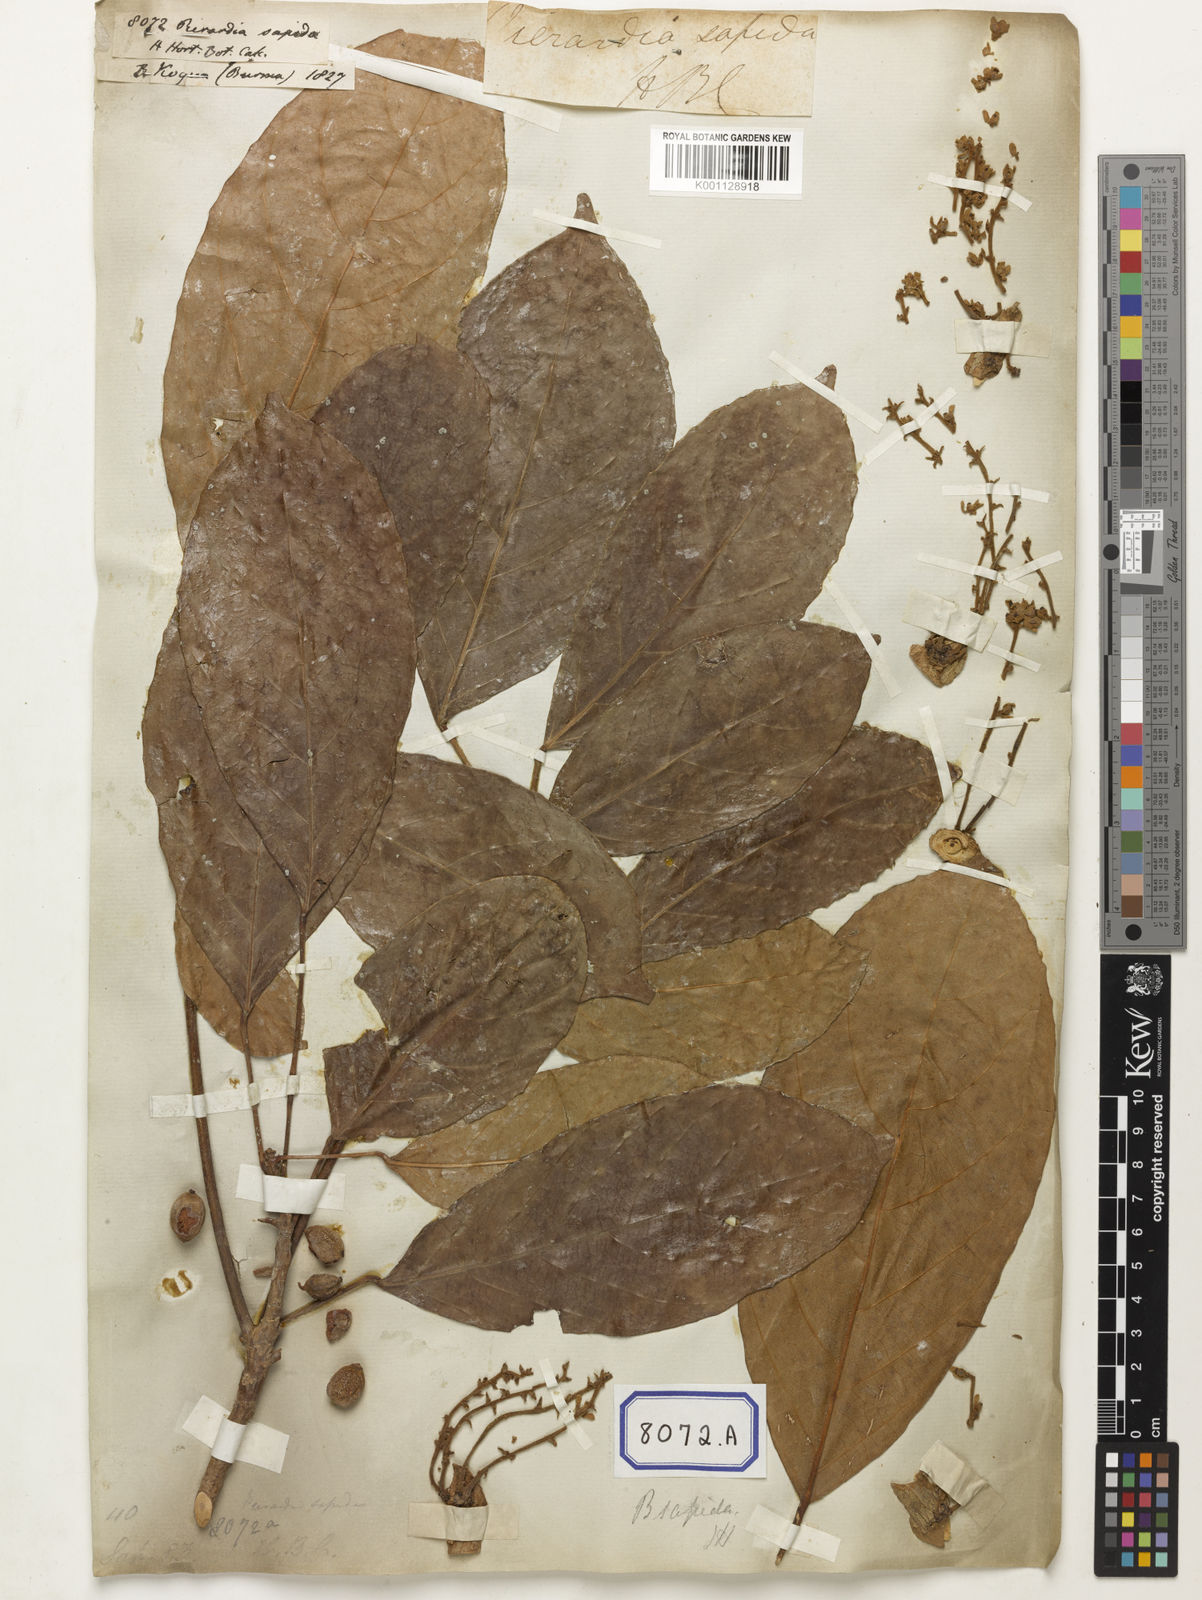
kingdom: Plantae
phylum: Tracheophyta
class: Magnoliopsida
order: Malpighiales
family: Phyllanthaceae
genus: Baccaurea
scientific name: Baccaurea ramiflora
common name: Baccaurea
